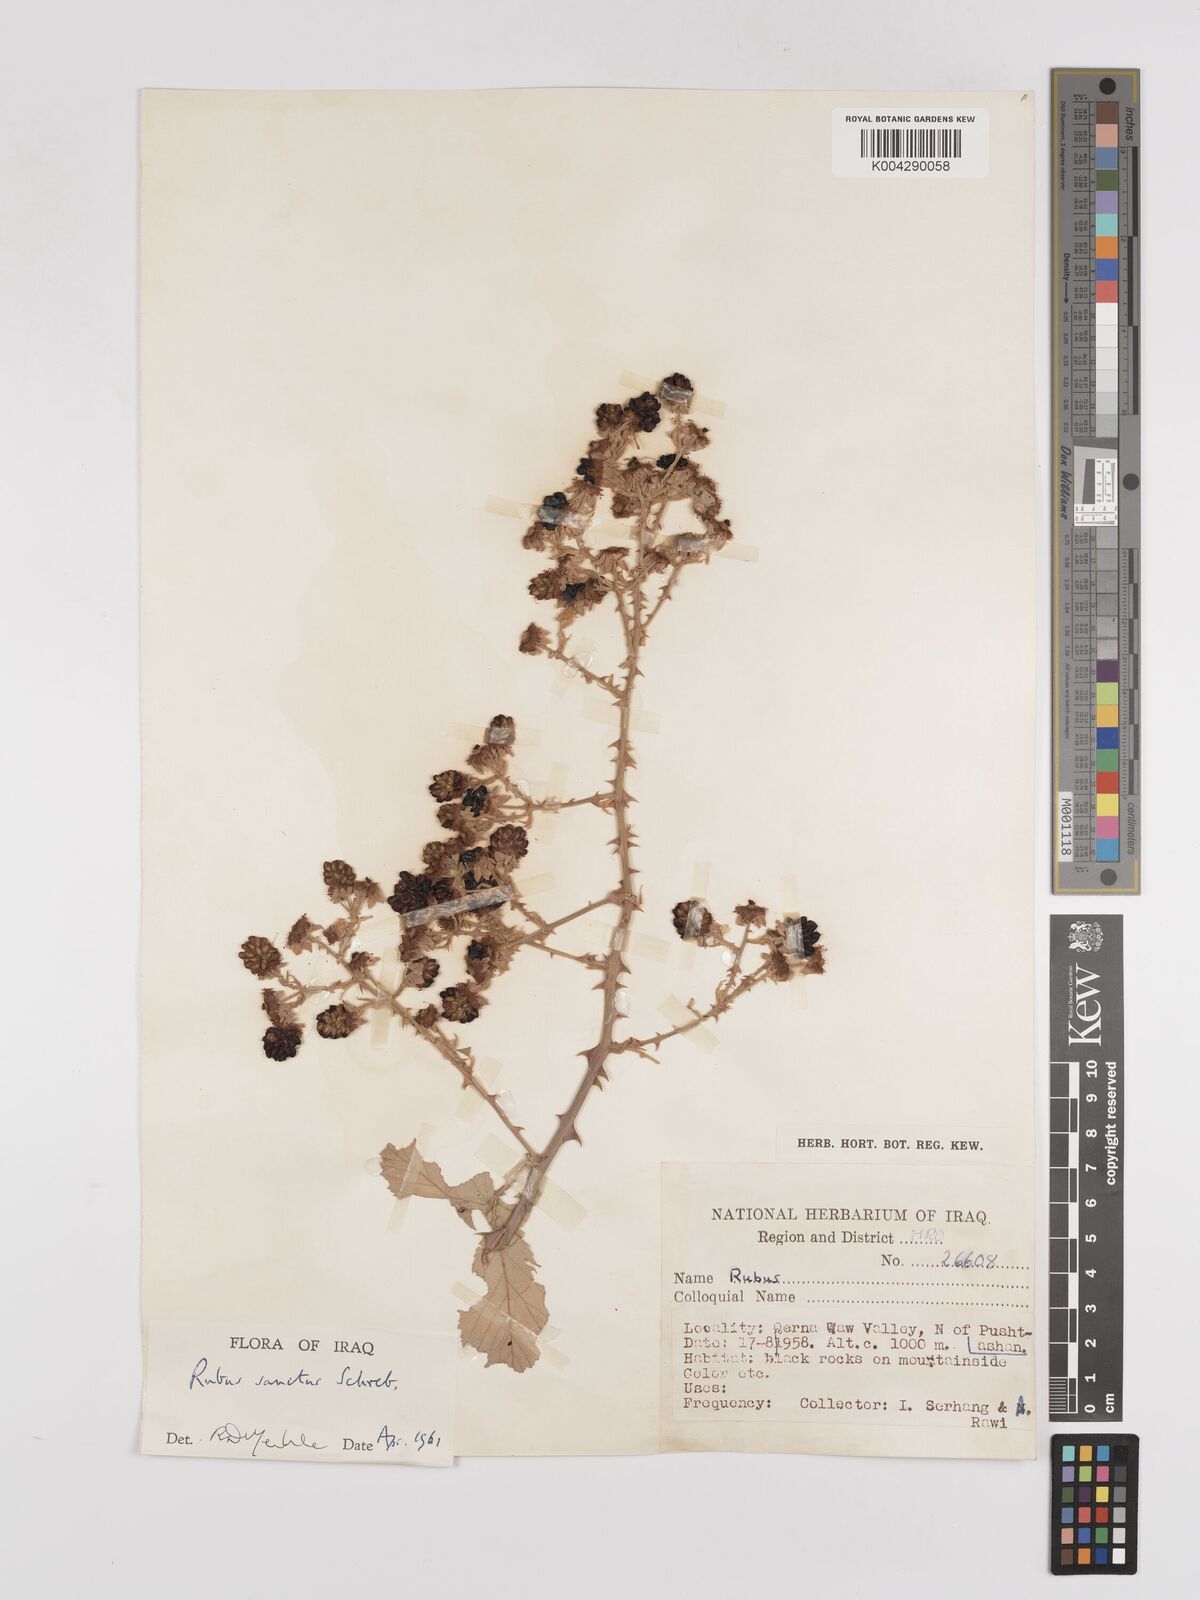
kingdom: Plantae
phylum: Tracheophyta
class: Magnoliopsida
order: Rosales
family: Rosaceae
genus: Rubus
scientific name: Rubus sanctus
